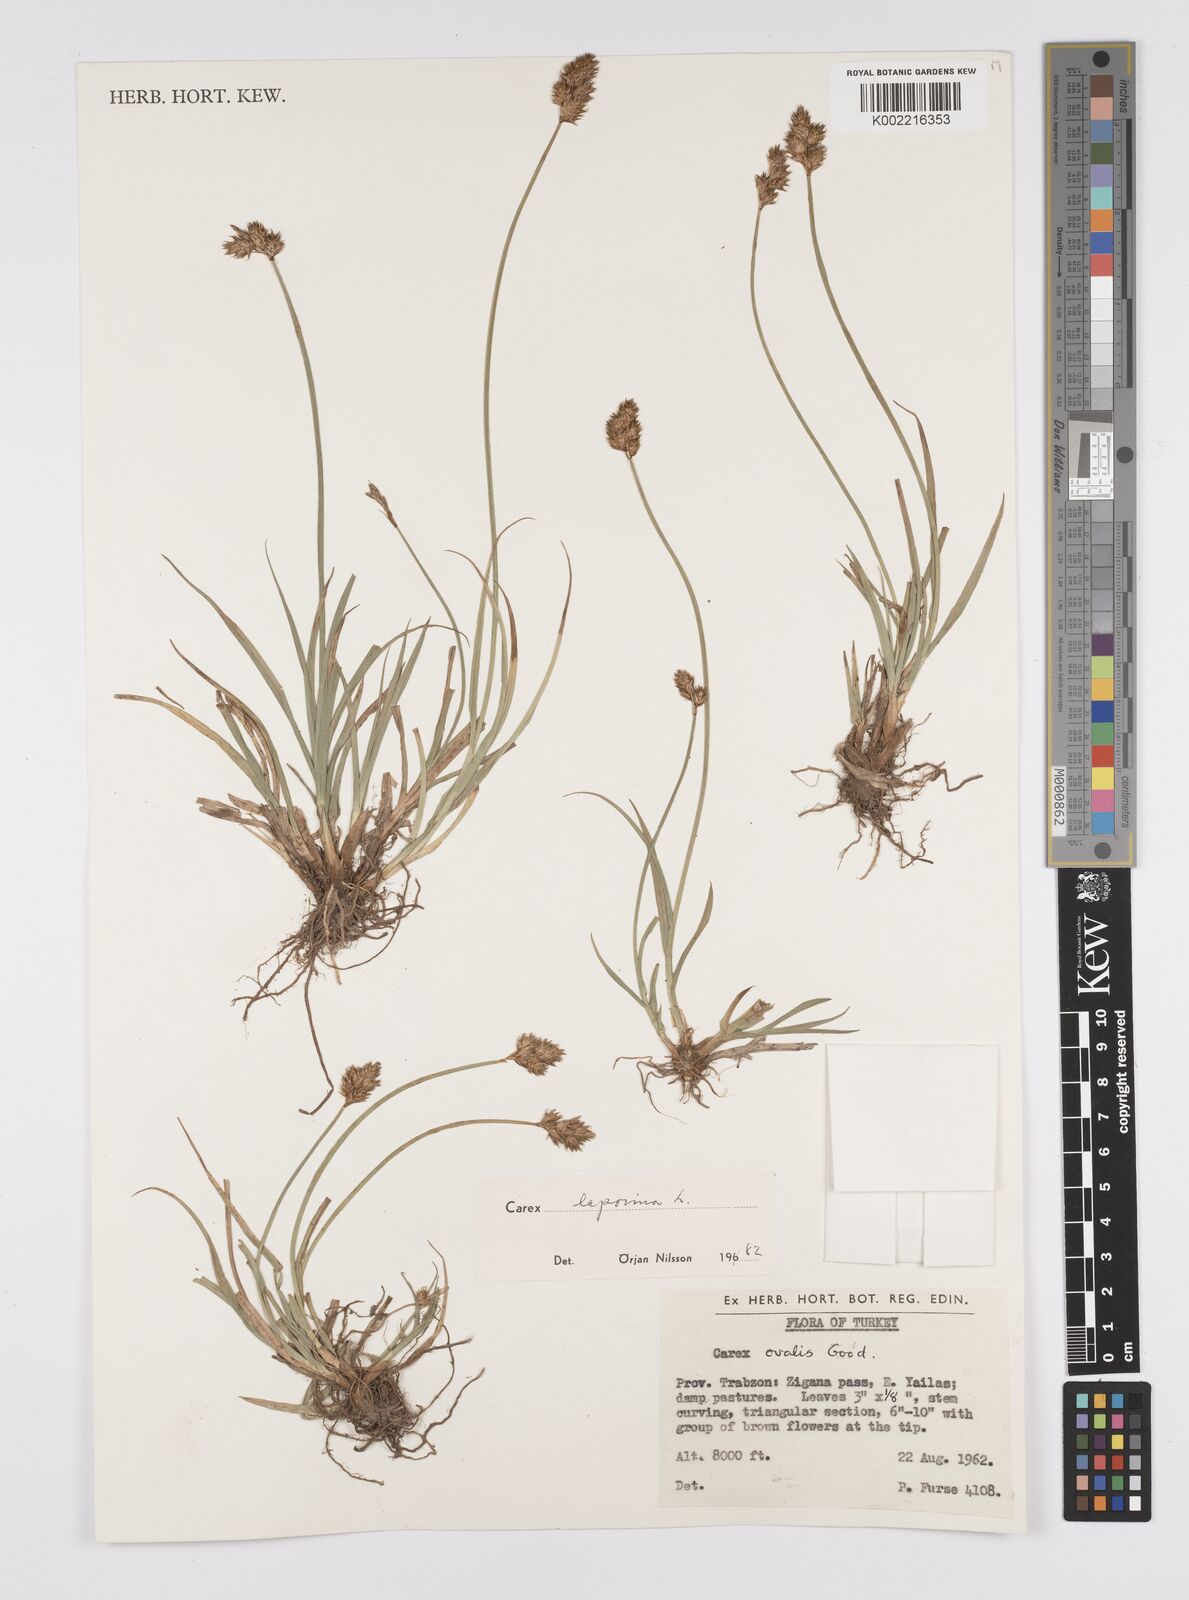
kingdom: Plantae
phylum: Tracheophyta
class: Liliopsida
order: Poales
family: Cyperaceae
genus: Carex
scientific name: Carex leporina
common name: Oval sedge
